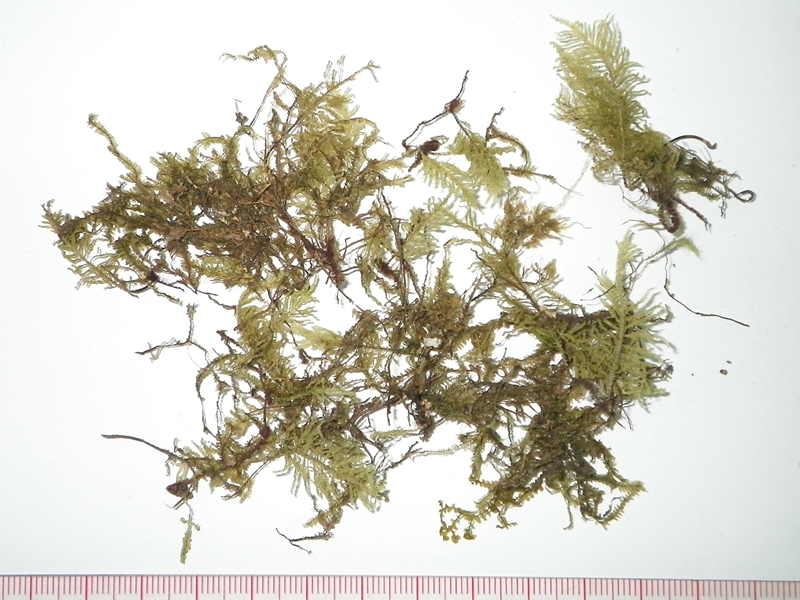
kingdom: Plantae
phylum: Bryophyta
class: Bryopsida
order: Hypopterygiales
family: Hypopterygiaceae
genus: Lopidium
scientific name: Lopidium struthiopteris
